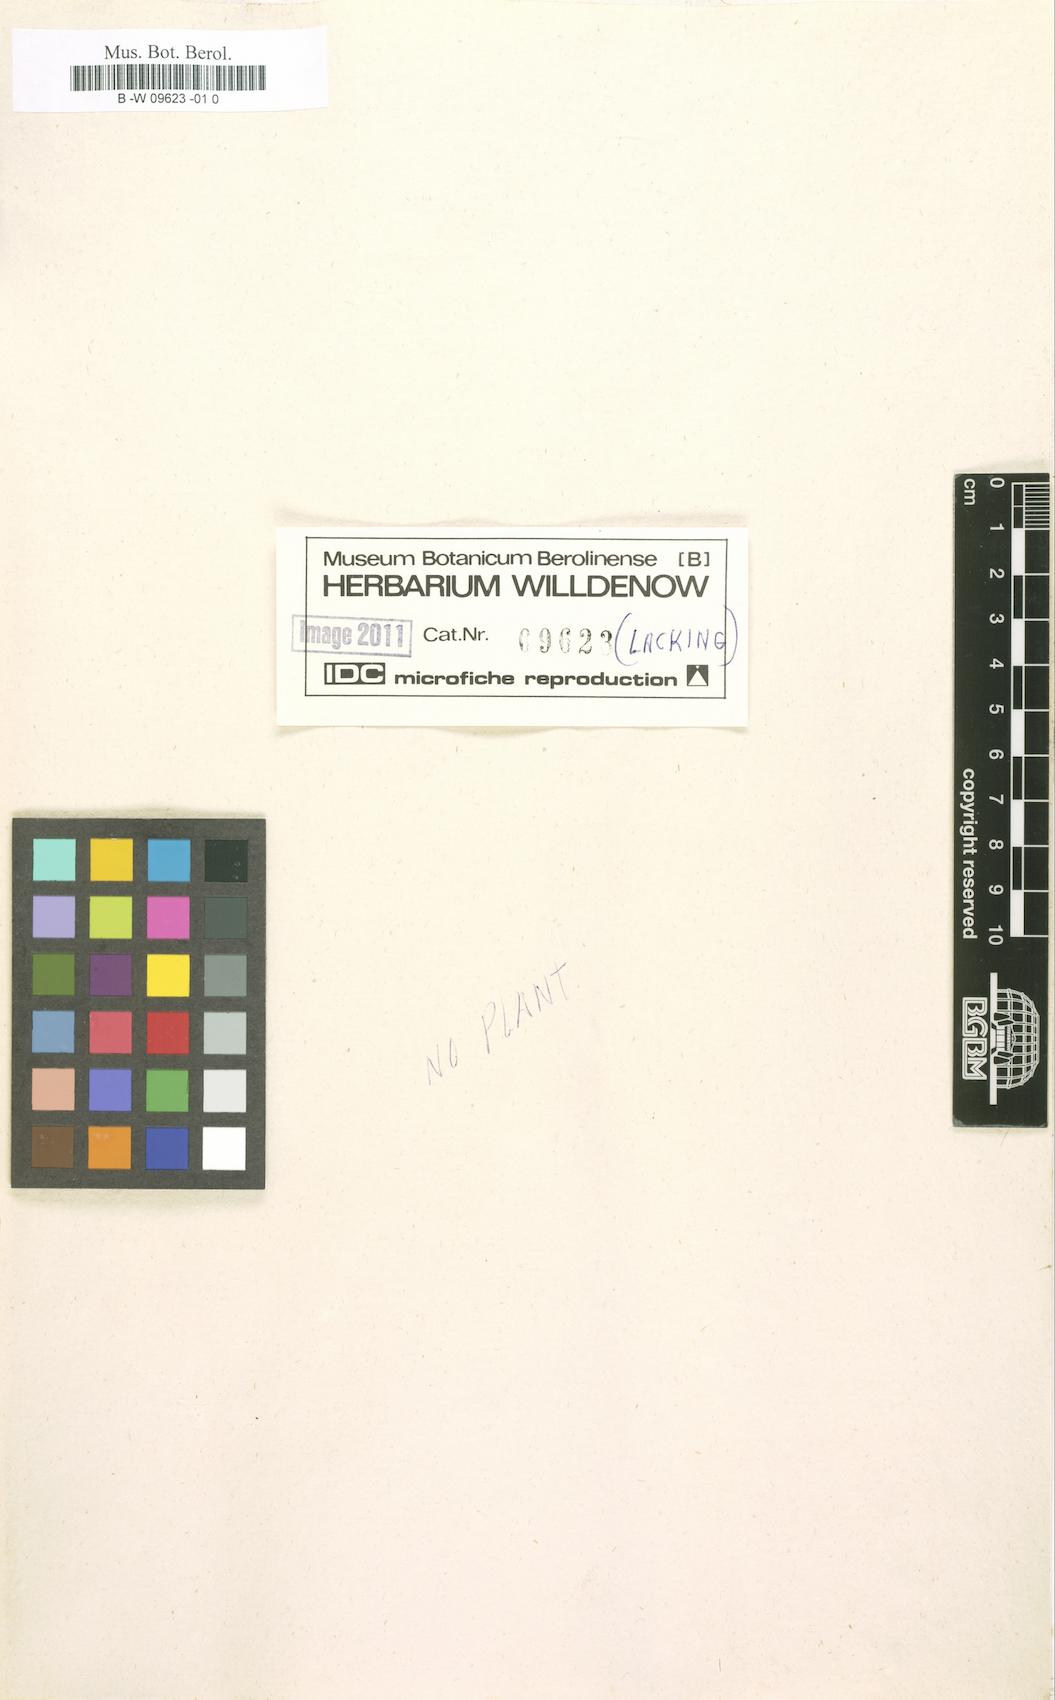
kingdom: Plantae
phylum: Tracheophyta
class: Magnoliopsida
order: Rosales
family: Rosaceae
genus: Prunus
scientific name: Prunus armeniaca
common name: Apricot
